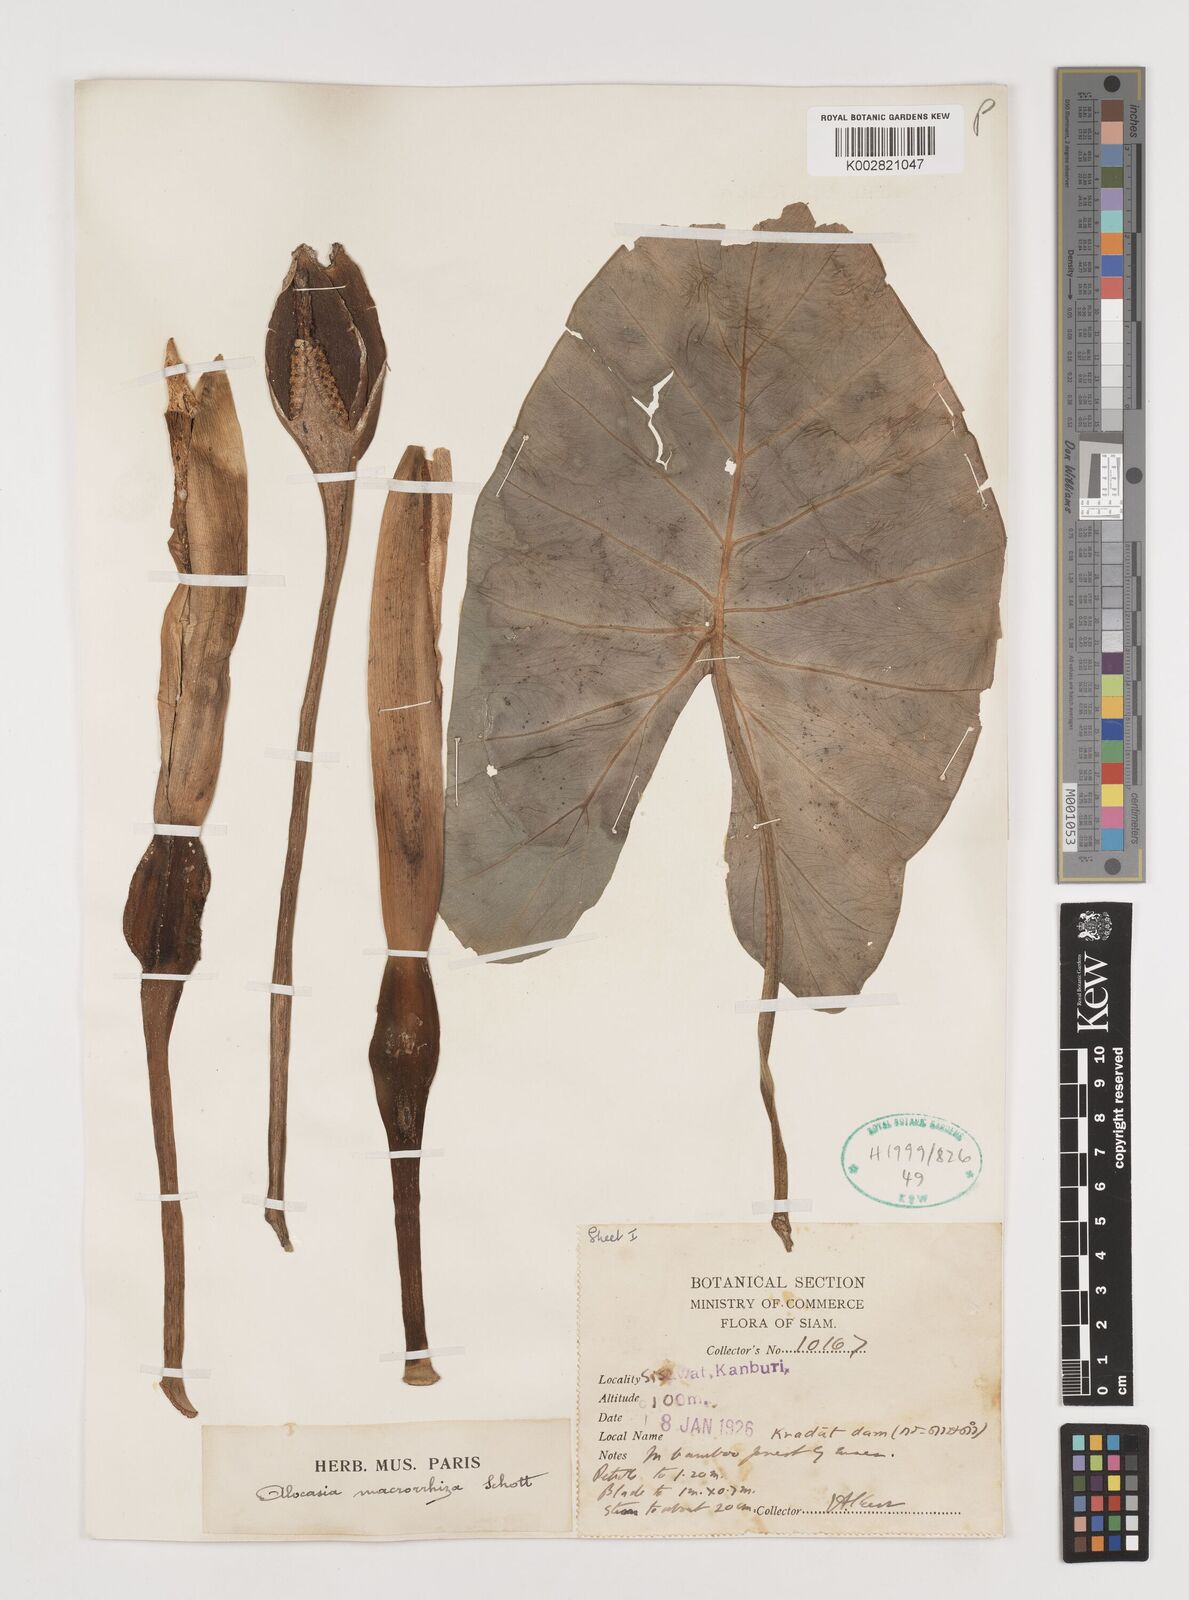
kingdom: Plantae
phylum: Tracheophyta
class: Liliopsida
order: Alismatales
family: Araceae
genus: Alocasia
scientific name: Alocasia macrorrhizos
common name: Giant taro
